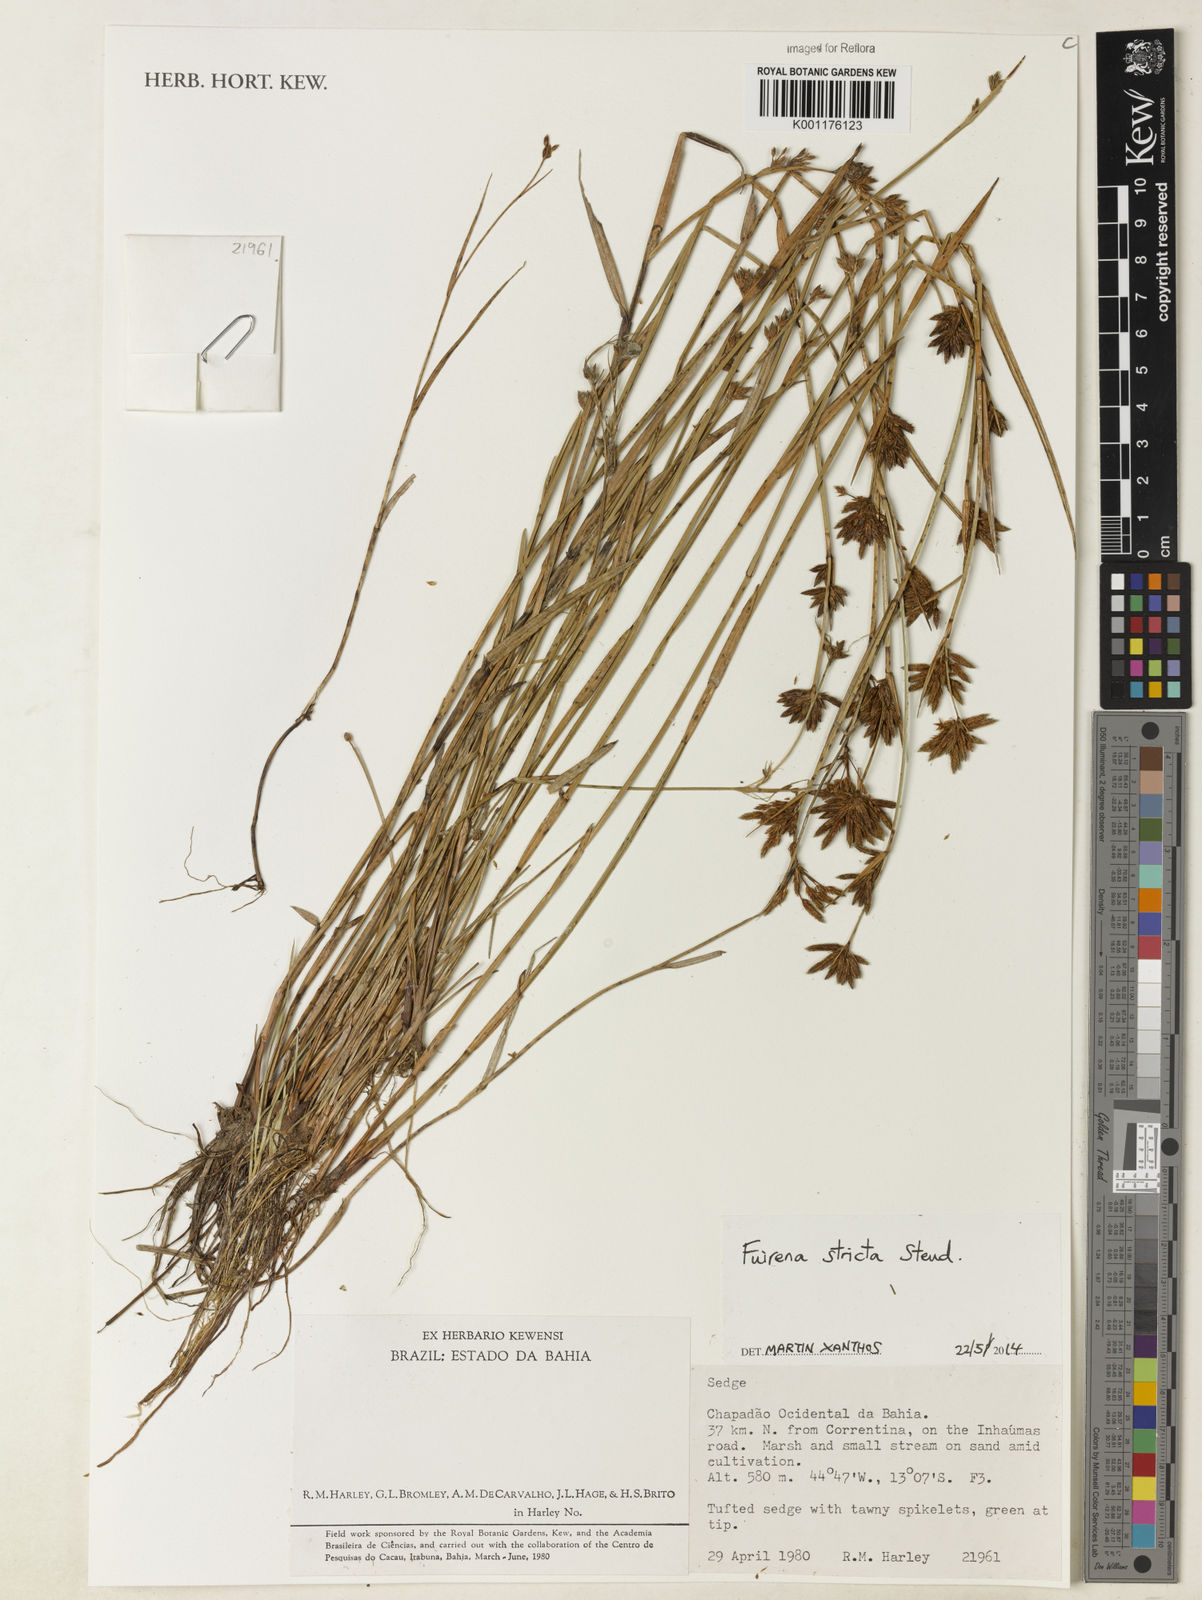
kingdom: Plantae
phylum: Tracheophyta
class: Liliopsida
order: Poales
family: Cyperaceae
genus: Fuirena
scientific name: Fuirena stricta
